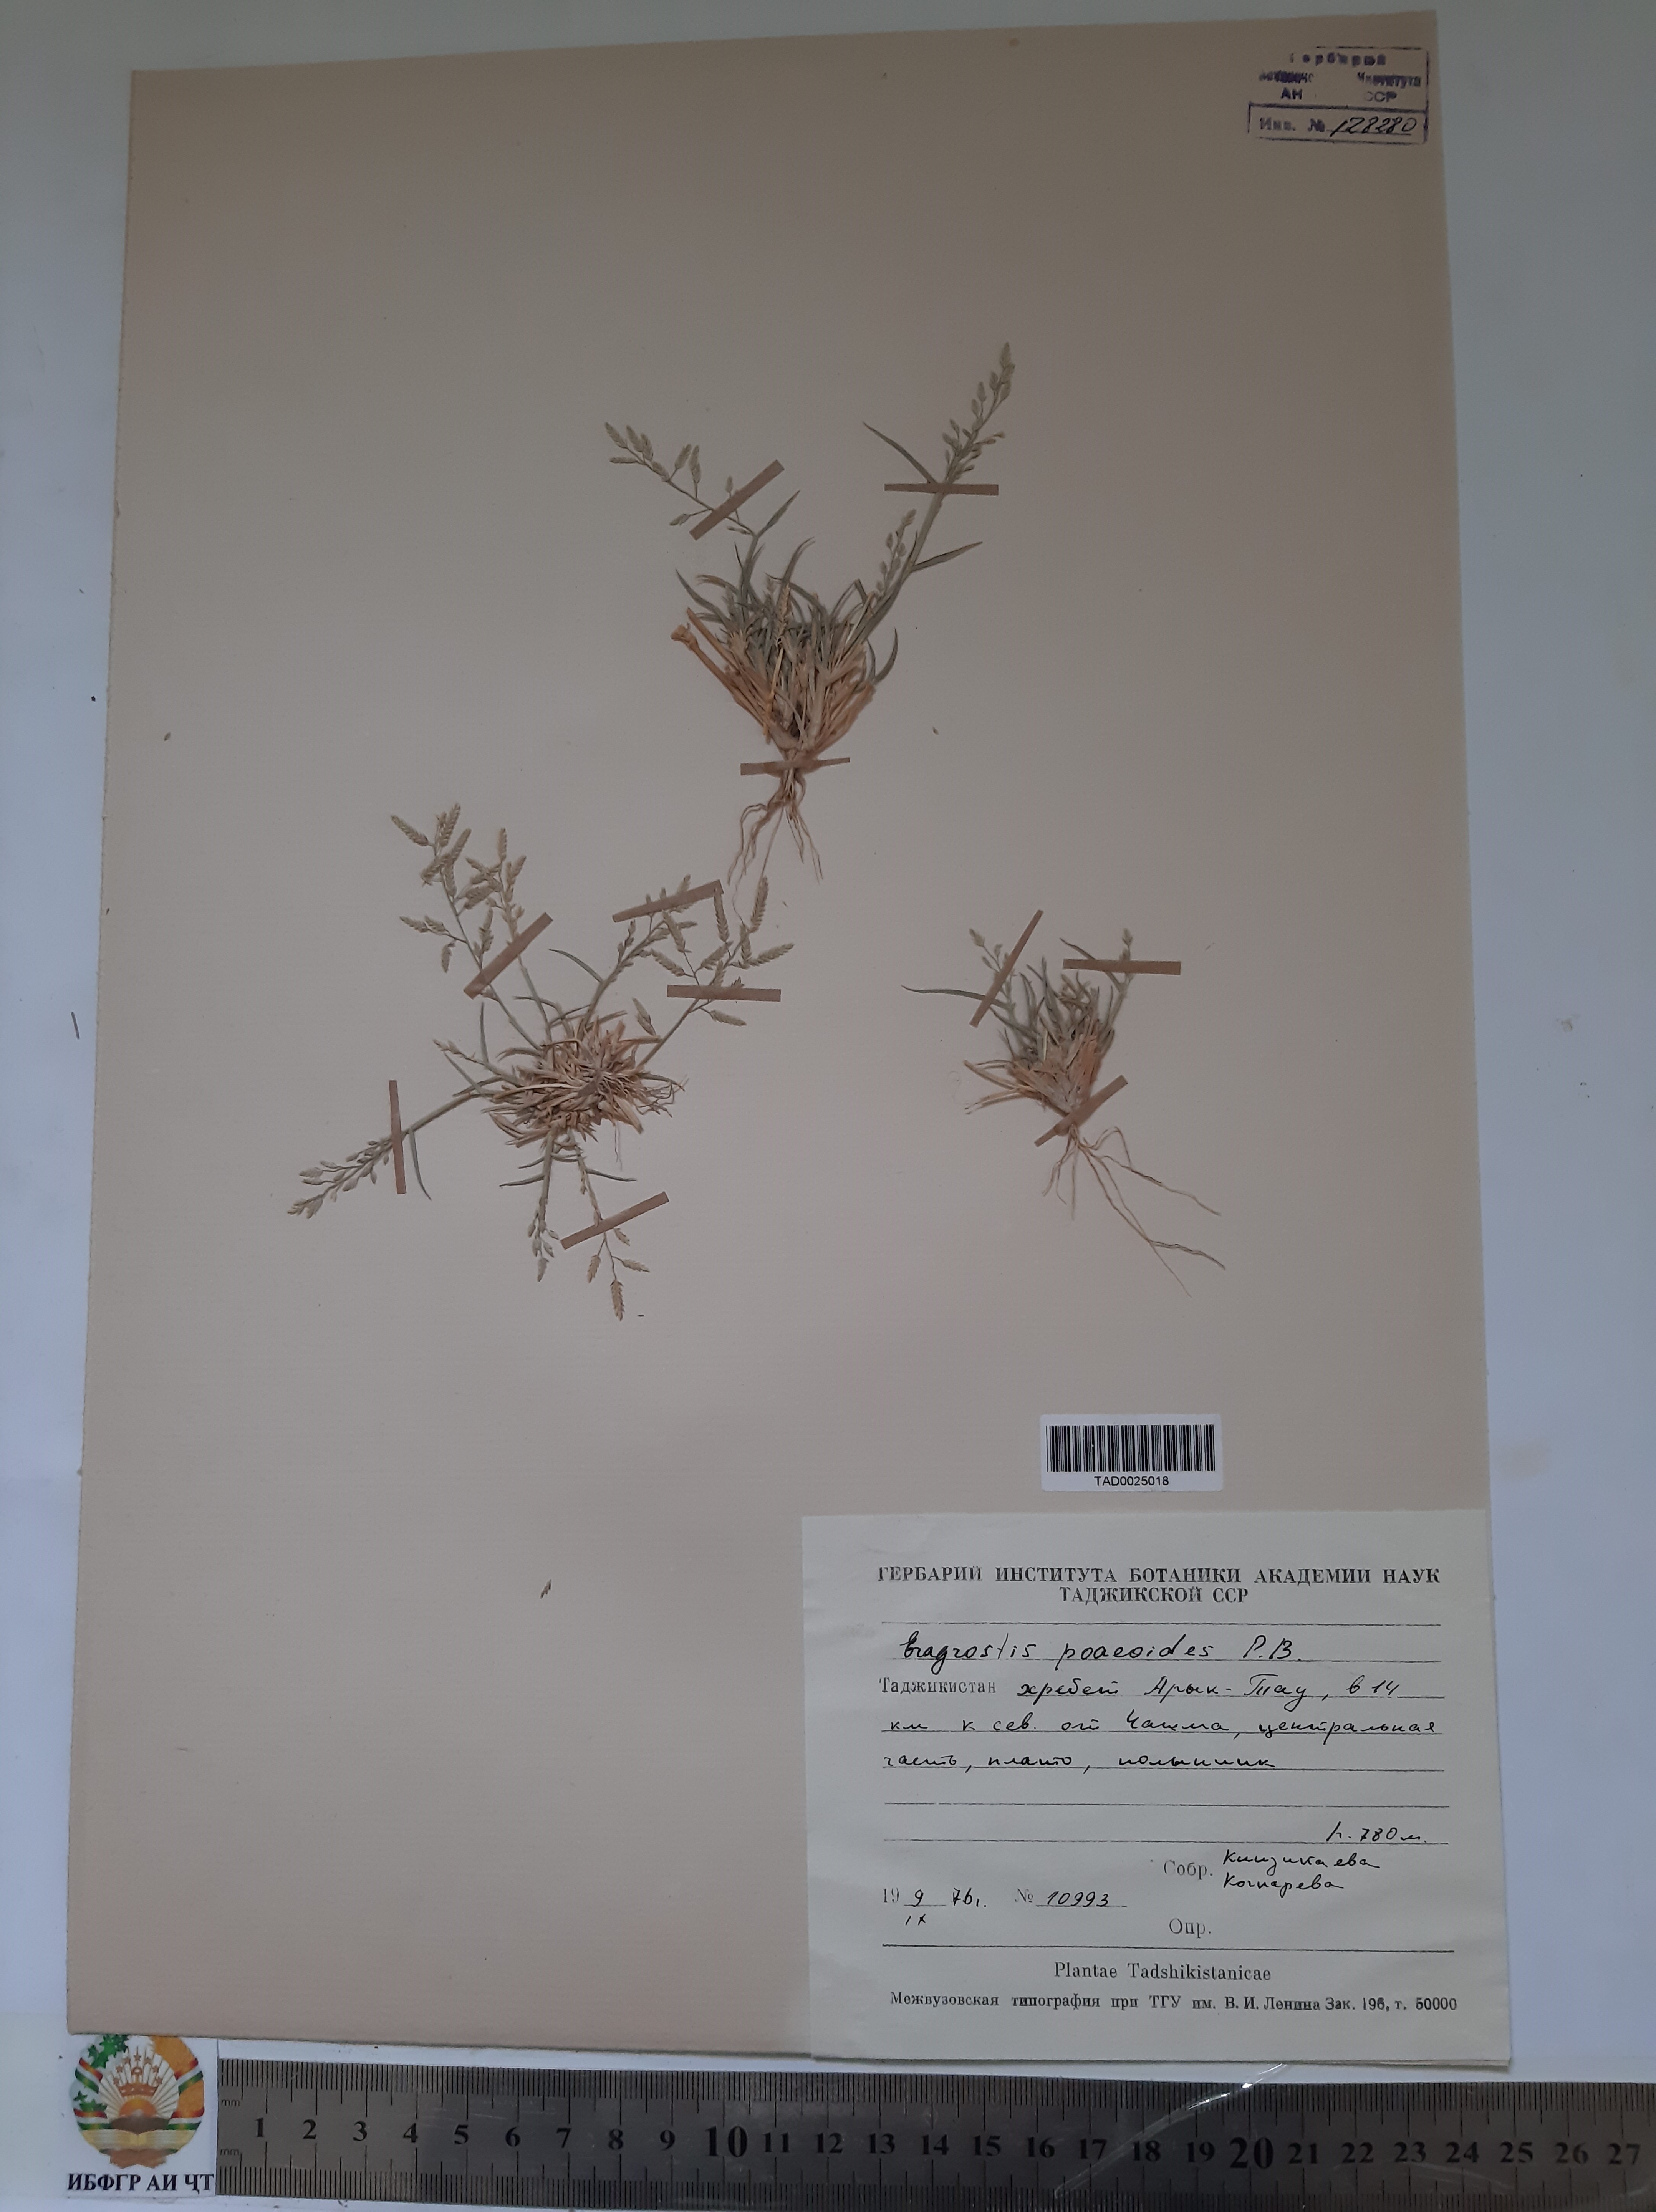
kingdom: Plantae
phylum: Tracheophyta
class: Liliopsida
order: Poales
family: Poaceae
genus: Eragrostis
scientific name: Eragrostis minor
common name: Small love-grass
